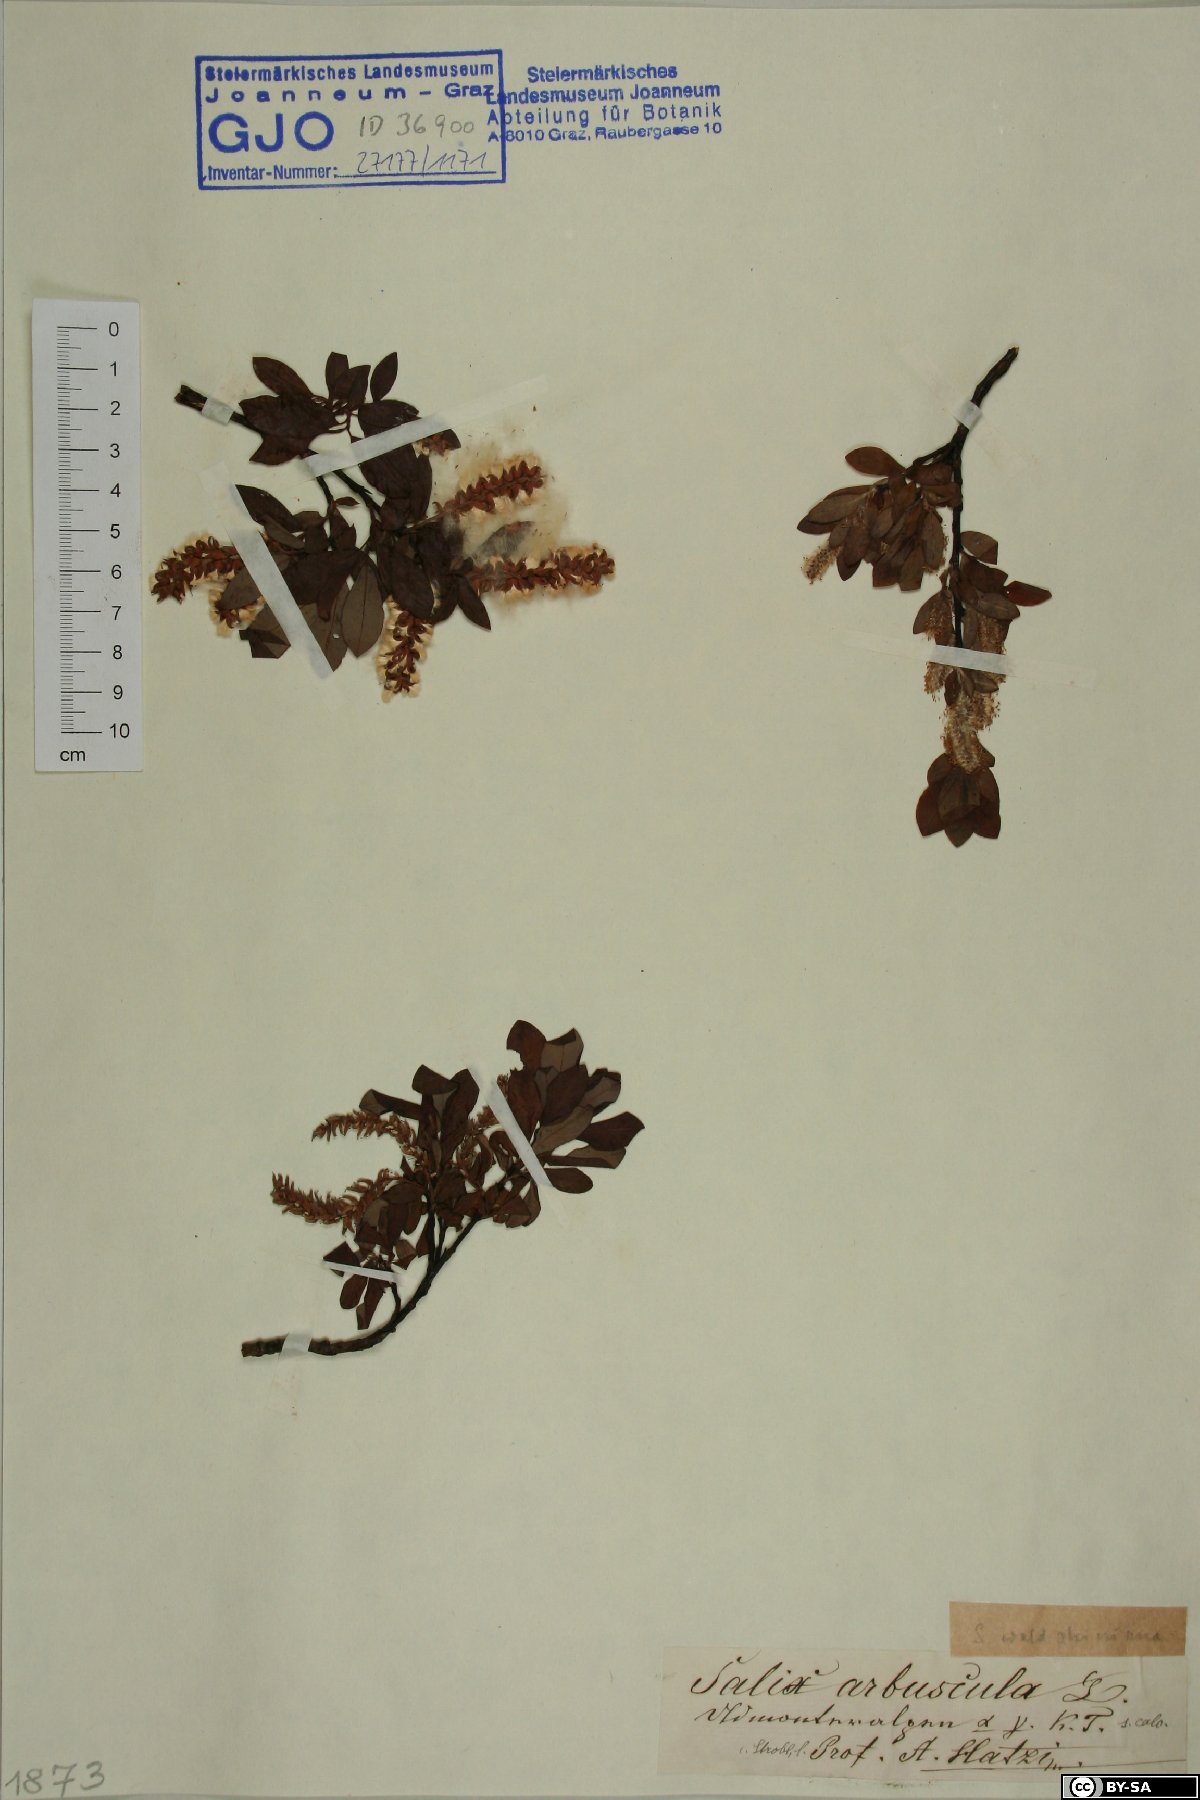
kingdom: Plantae
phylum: Tracheophyta
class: Magnoliopsida
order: Malpighiales
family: Salicaceae
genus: Salix
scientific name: Salix waldsteiniana
